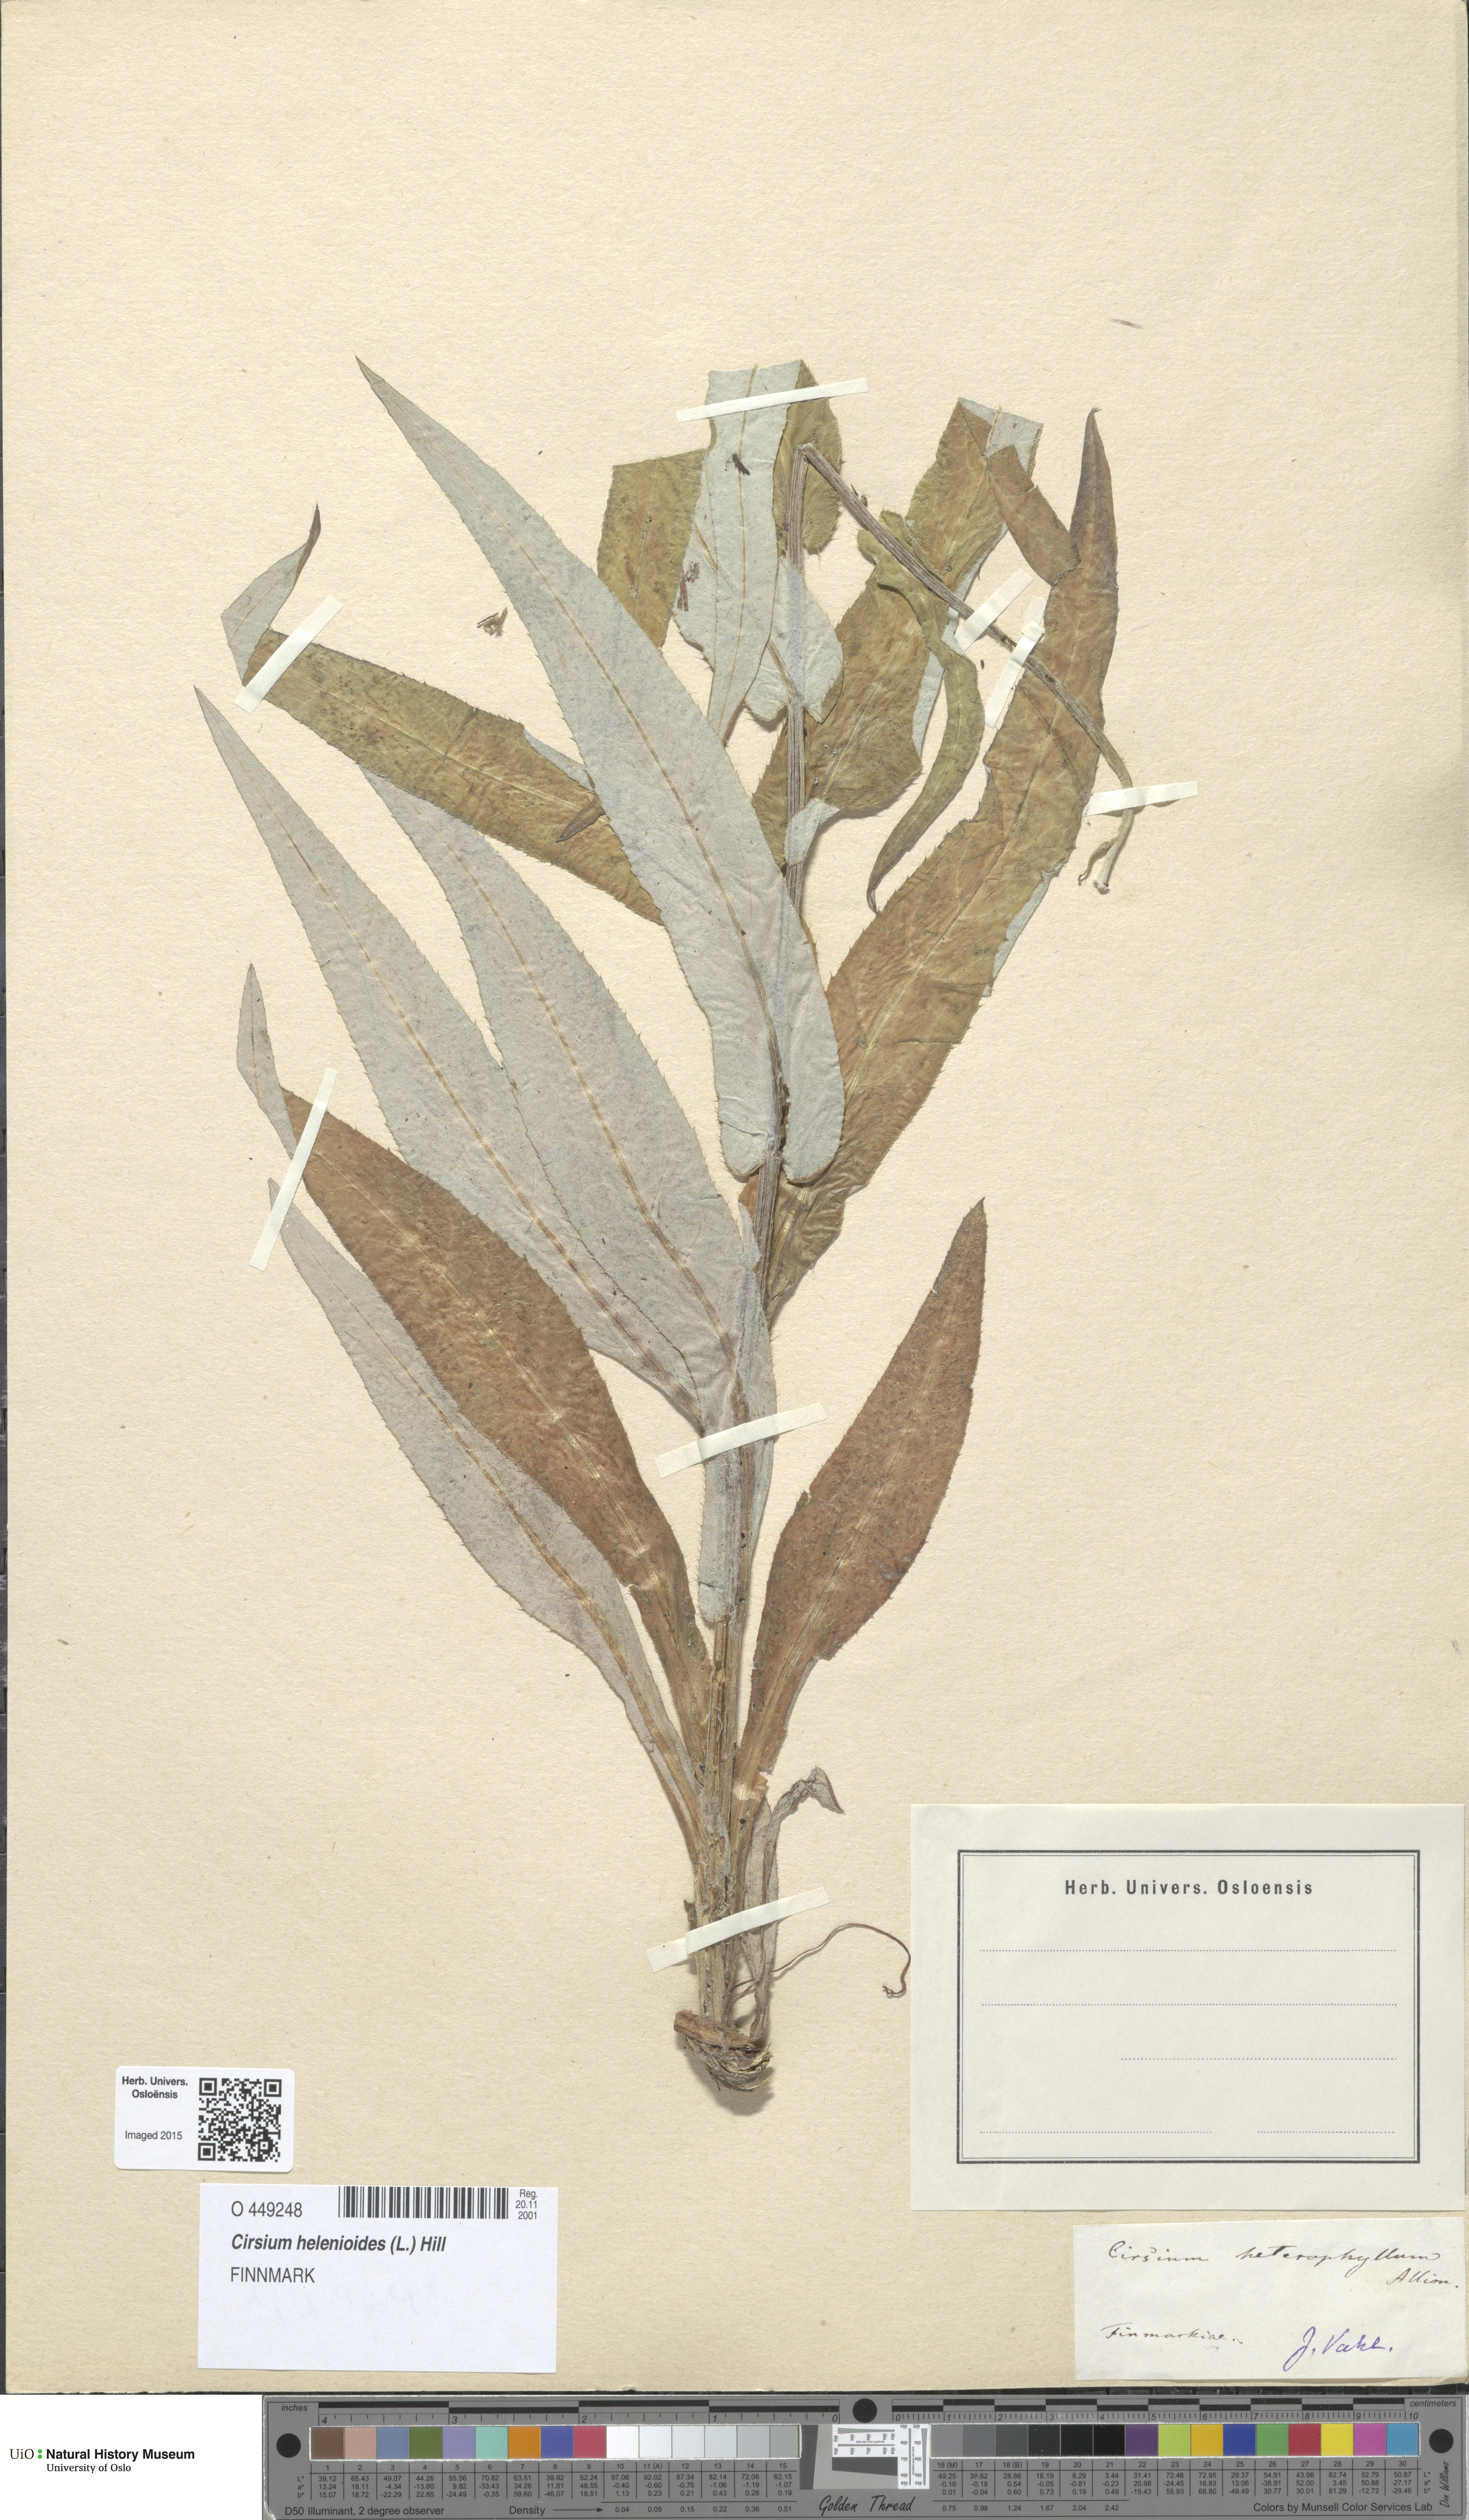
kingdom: Plantae
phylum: Tracheophyta
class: Magnoliopsida
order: Asterales
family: Asteraceae
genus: Cirsium
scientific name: Cirsium heterophyllum
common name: Melancholy thistle
